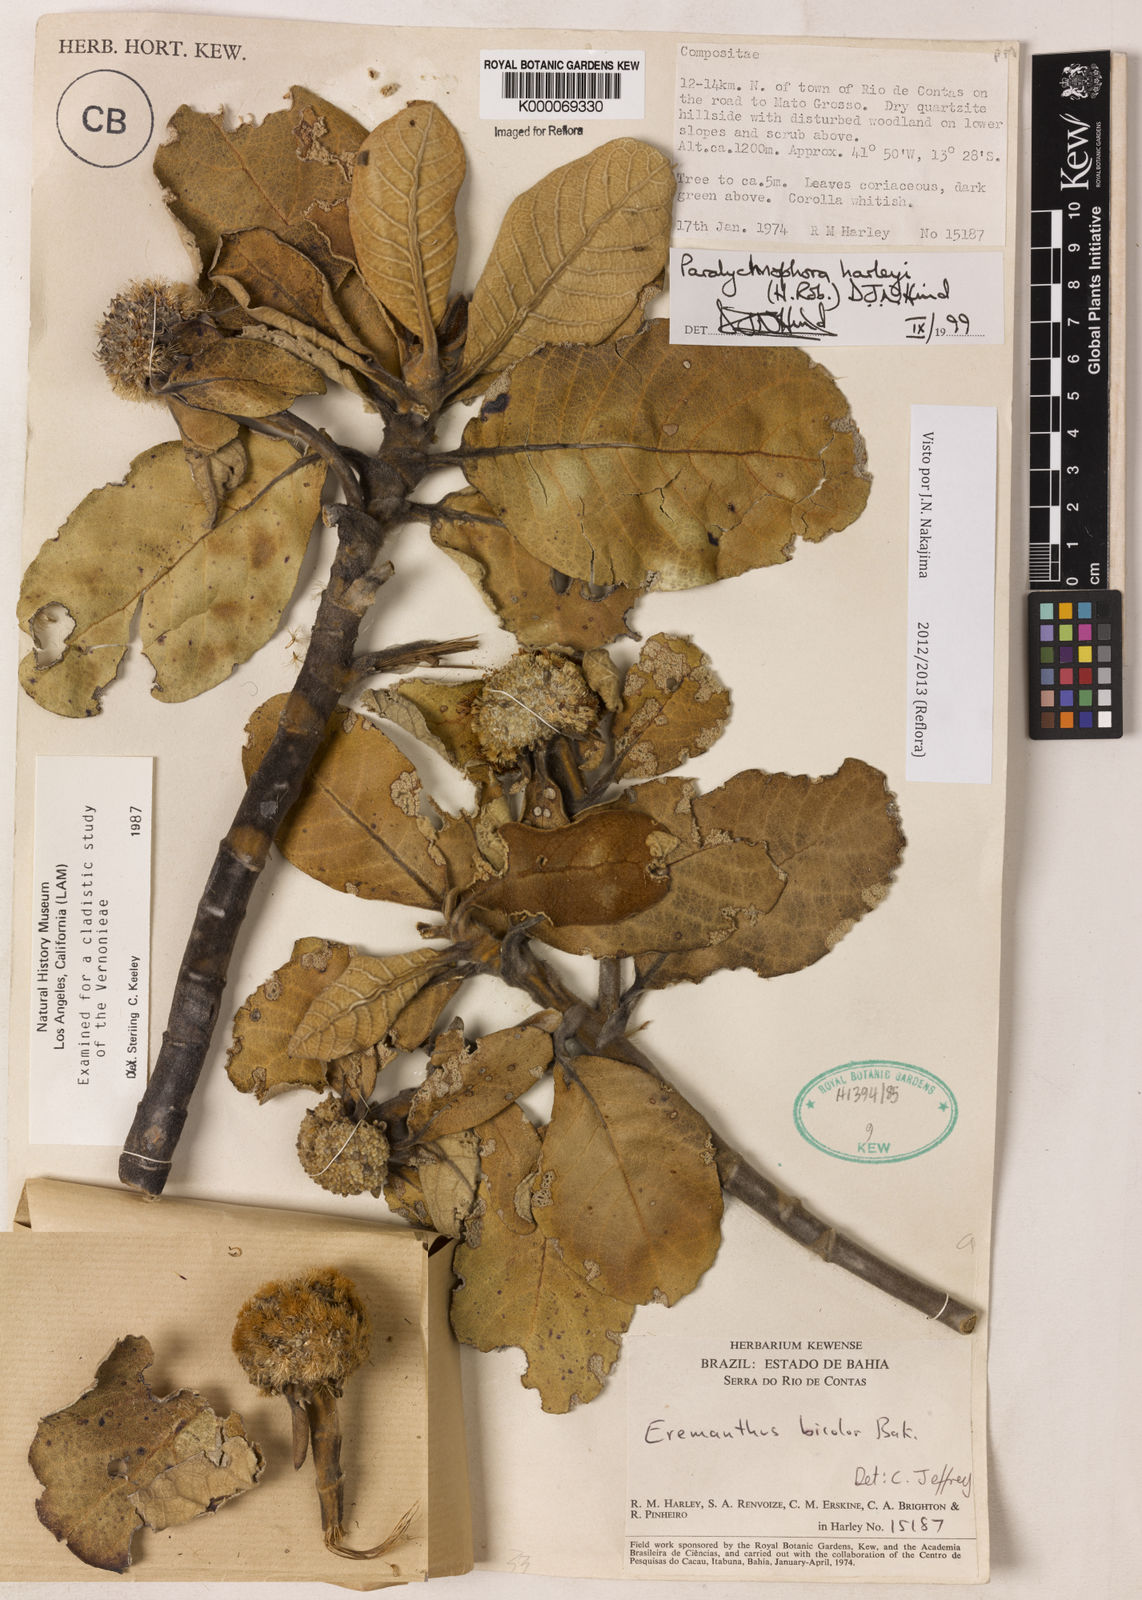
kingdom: Plantae
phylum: Tracheophyta
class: Magnoliopsida
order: Asterales
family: Asteraceae
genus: Paralychnophora
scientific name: Paralychnophora harleyi
